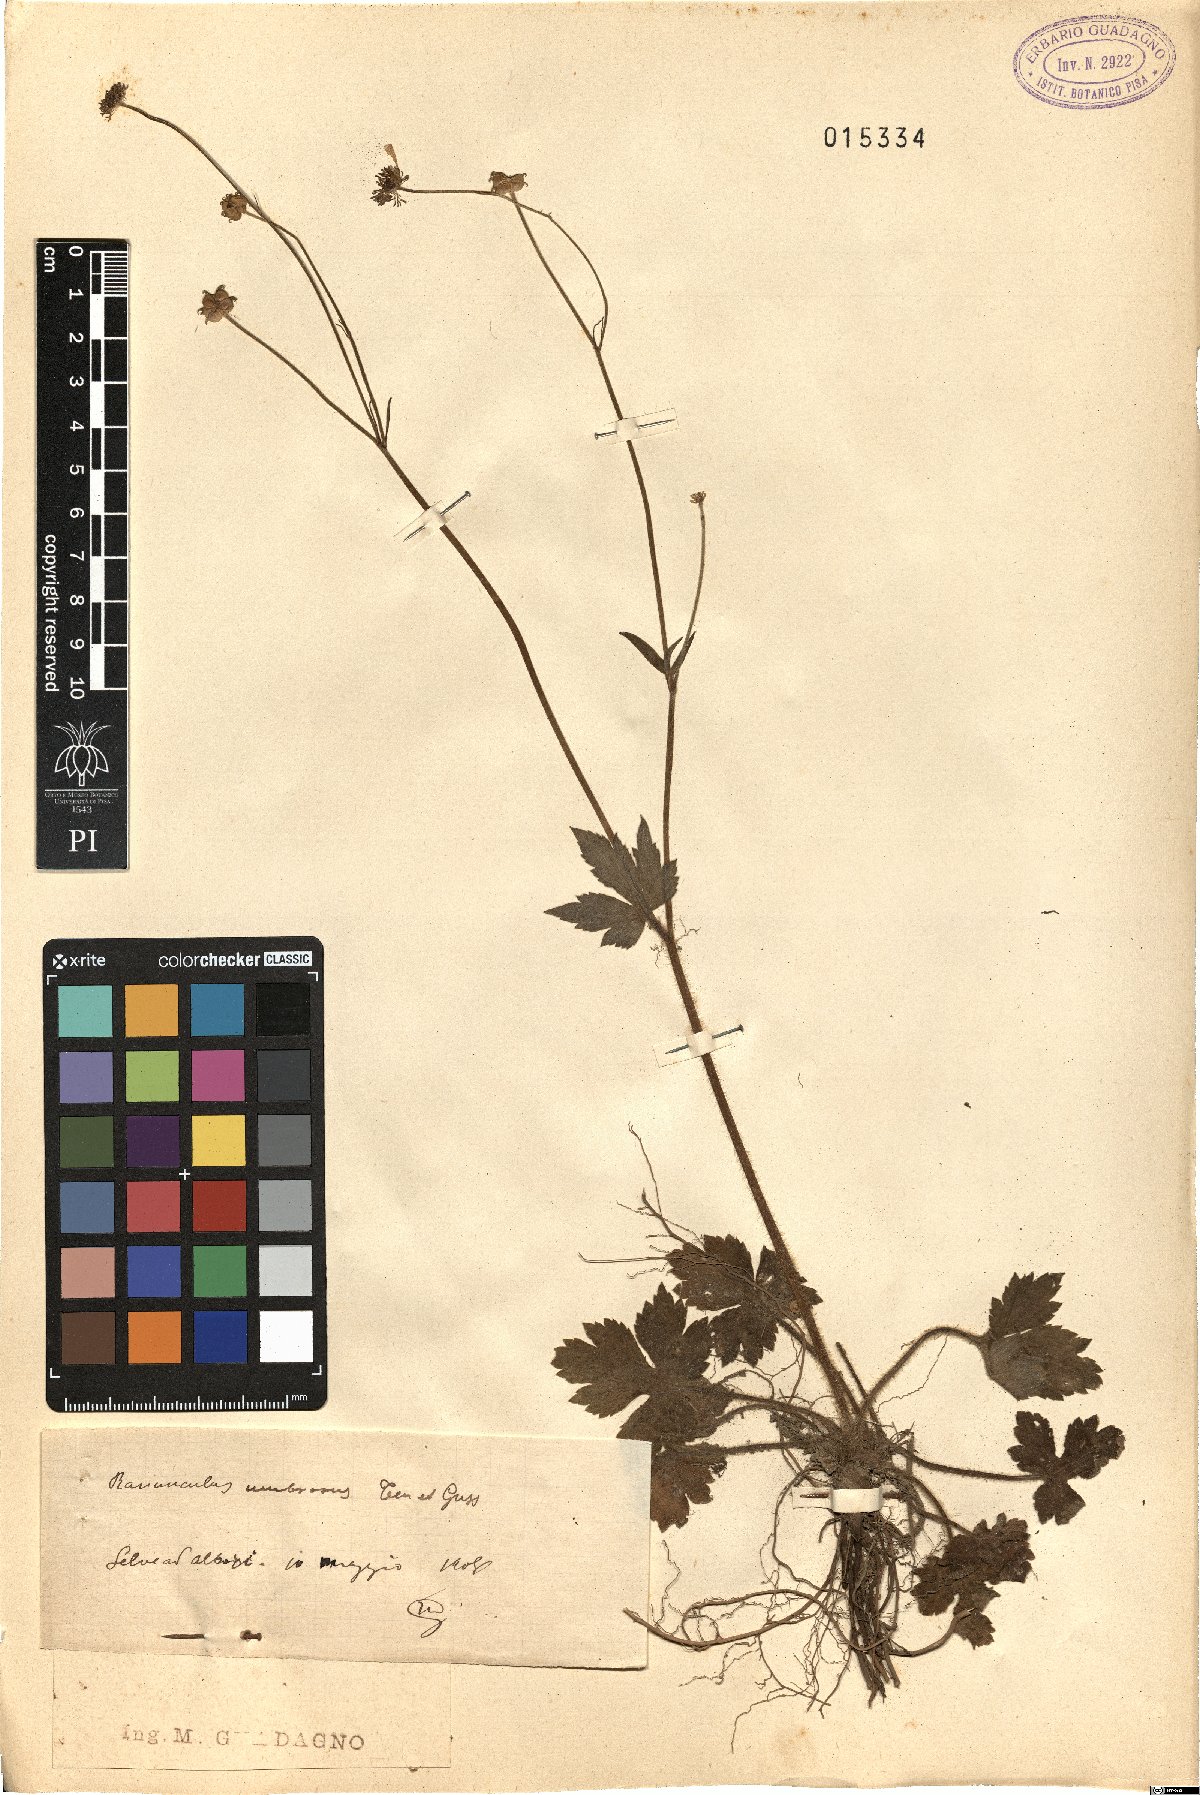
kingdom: Plantae
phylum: Tracheophyta
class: Magnoliopsida
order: Ranunculales
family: Ranunculaceae
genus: Ranunculus
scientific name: Ranunculus lanuginosus
